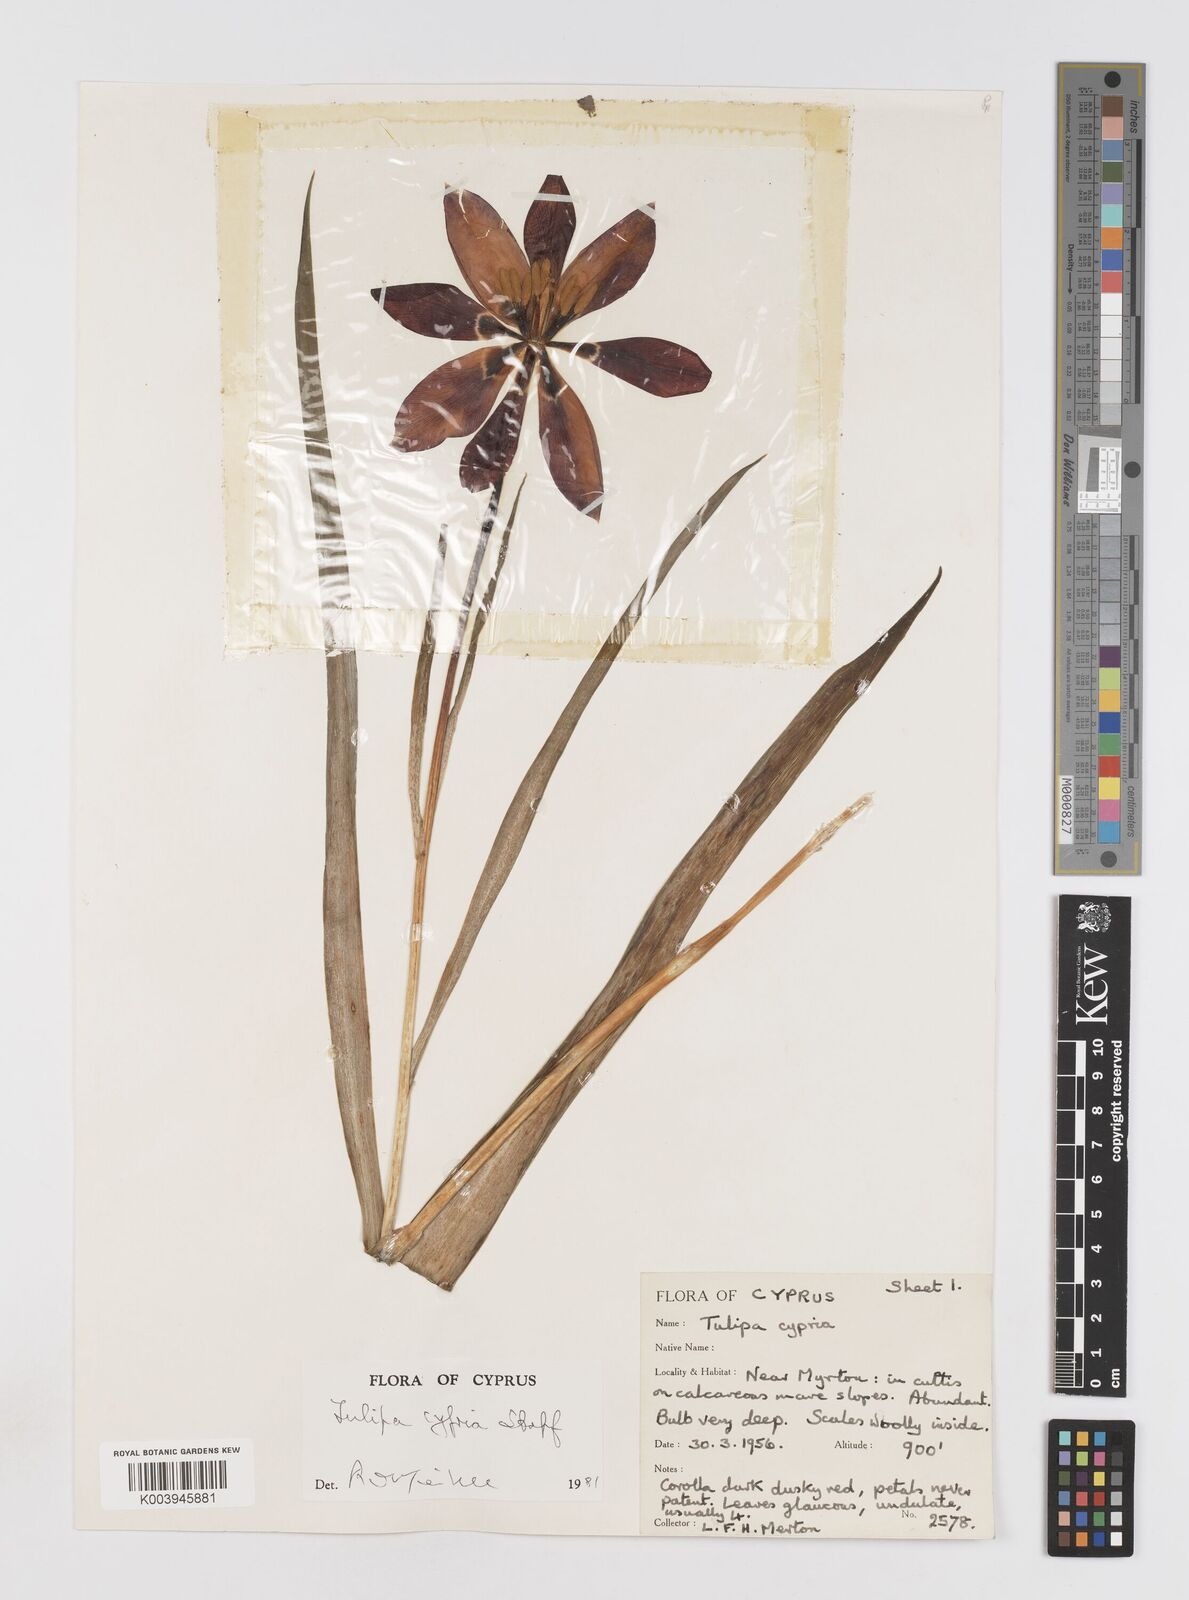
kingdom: Plantae
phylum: Tracheophyta
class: Liliopsida
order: Liliales
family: Liliaceae
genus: Tulipa
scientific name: Tulipa cypria
